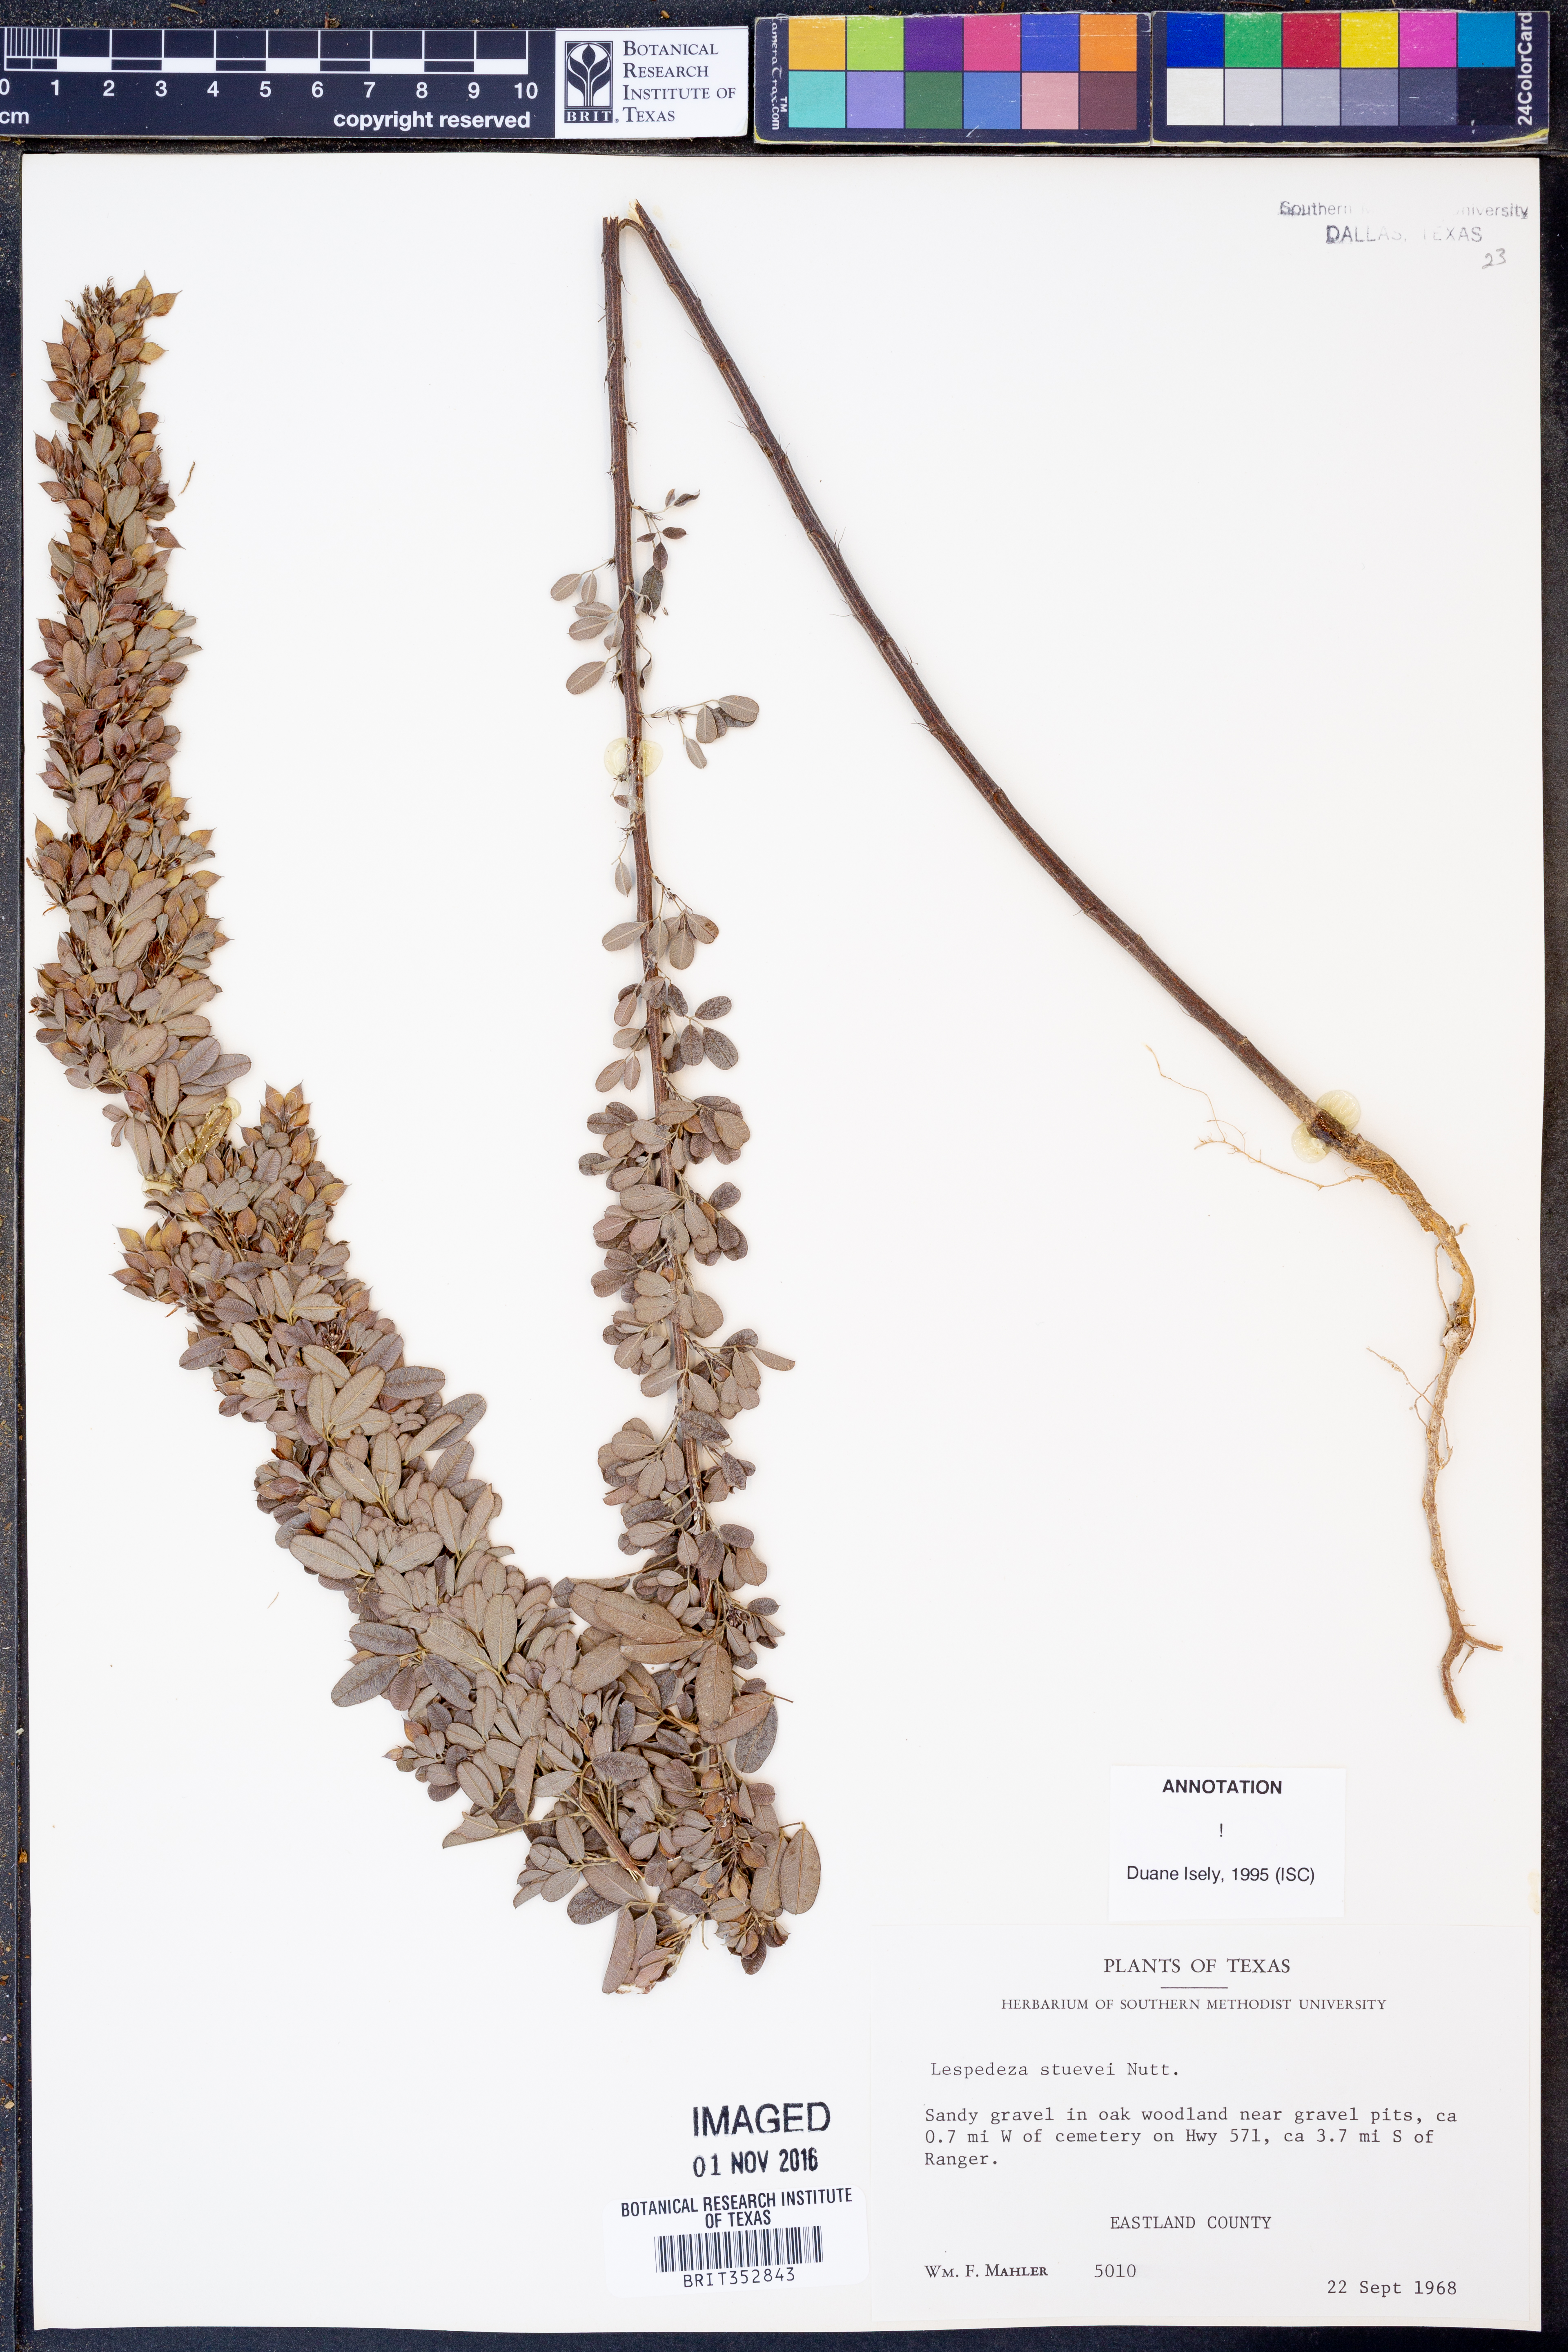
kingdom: Plantae
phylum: Tracheophyta
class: Magnoliopsida
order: Fabales
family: Fabaceae
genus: Lespedeza
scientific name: Lespedeza stuevei
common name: Tall bush-clover
